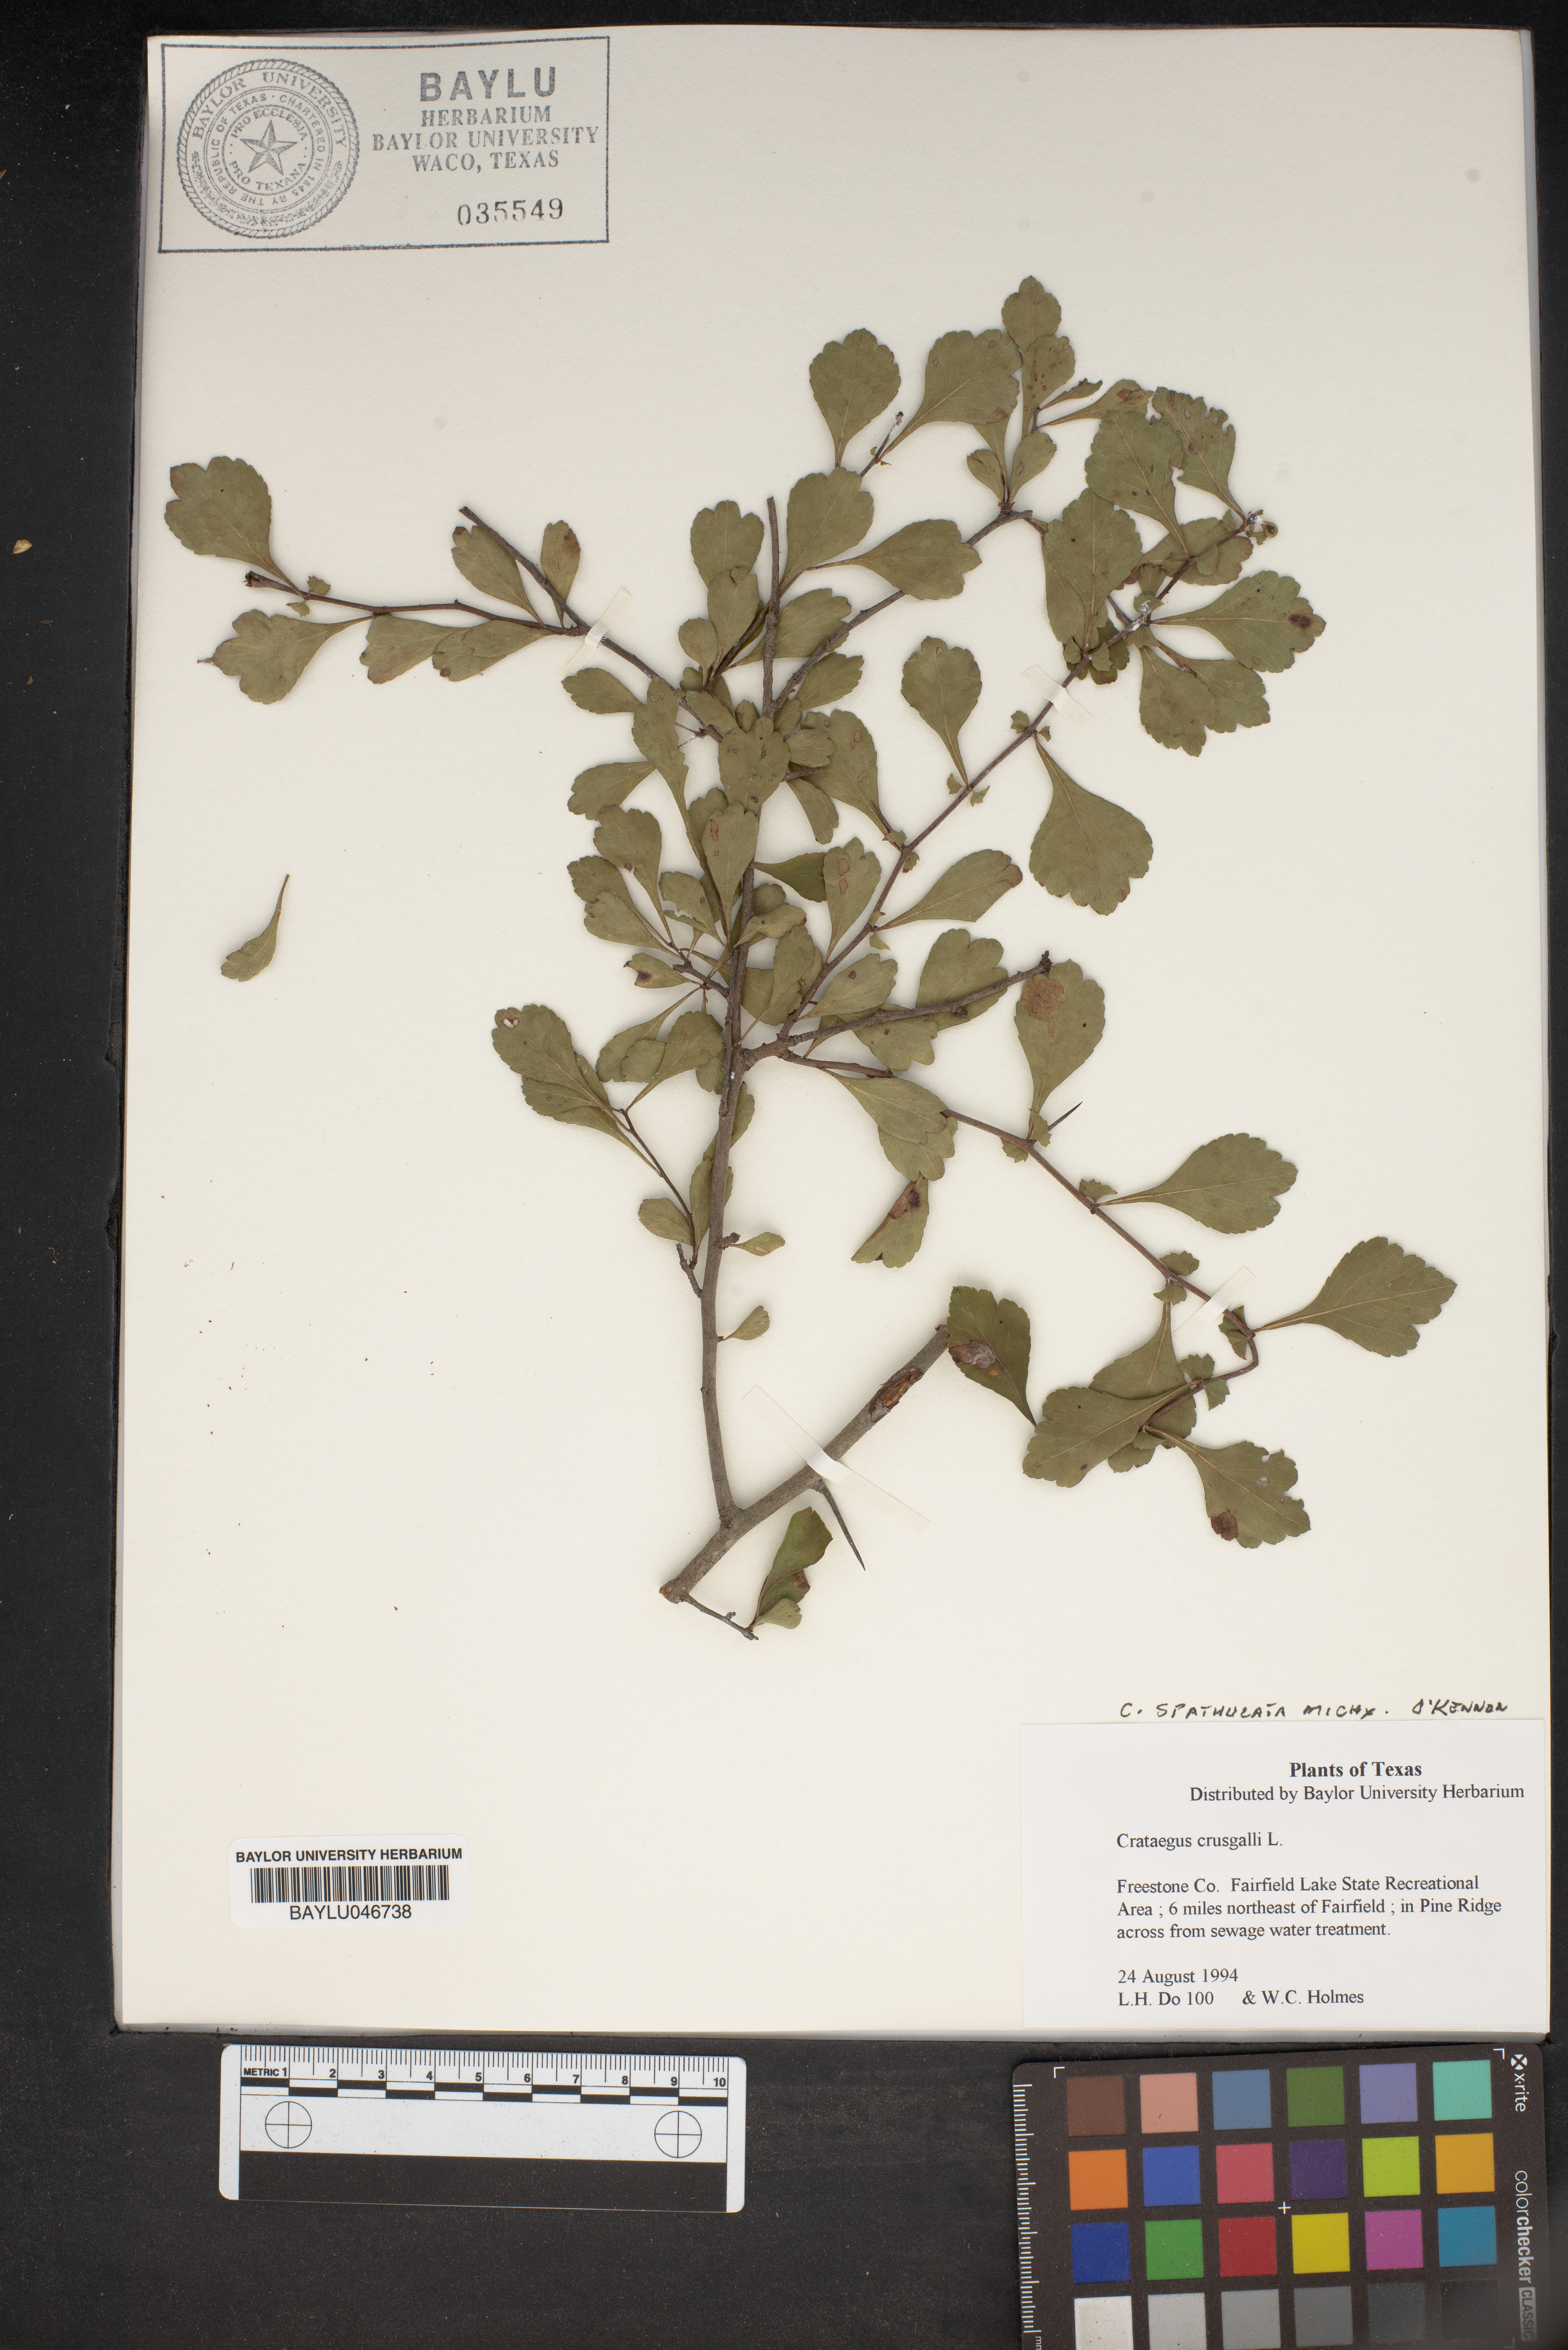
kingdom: Plantae
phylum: Tracheophyta
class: Magnoliopsida
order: Rosales
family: Rosaceae
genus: Crataegus
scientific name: Crataegus crus-galli
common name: Cockspurthorn
